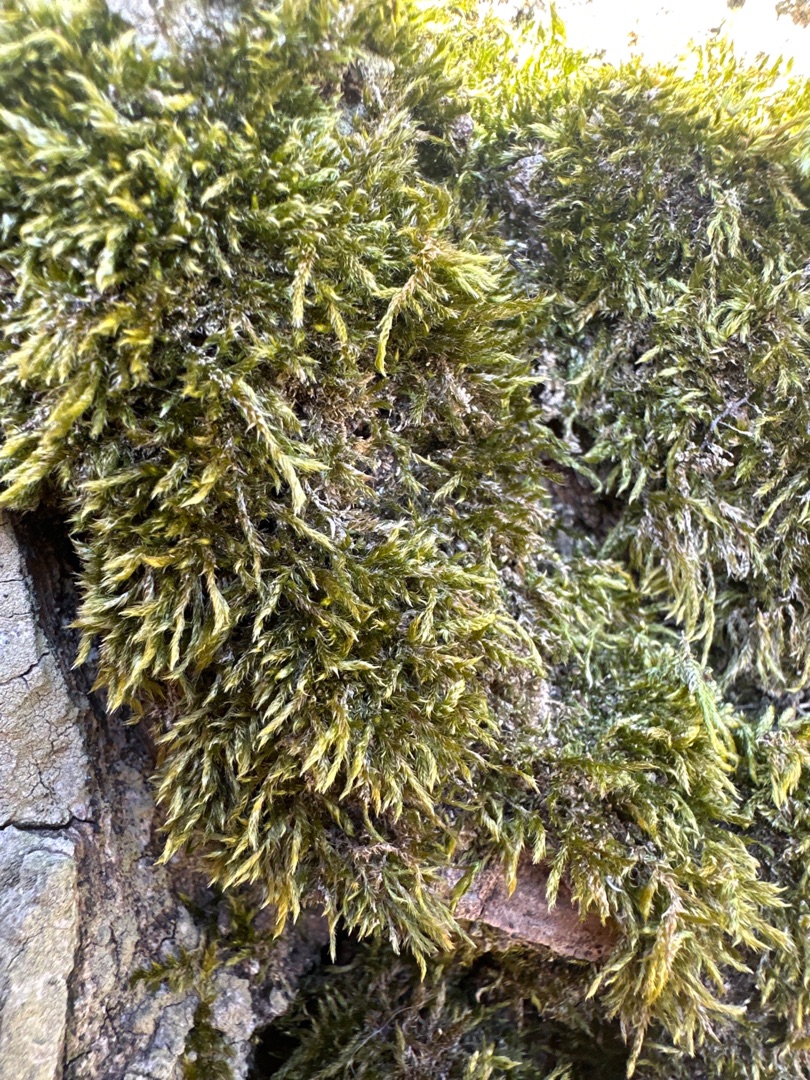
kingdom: Plantae
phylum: Bryophyta
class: Bryopsida
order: Hypnales
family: Hypnaceae
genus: Hypnum
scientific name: Hypnum cupressiforme
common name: Almindelig cypresmos
